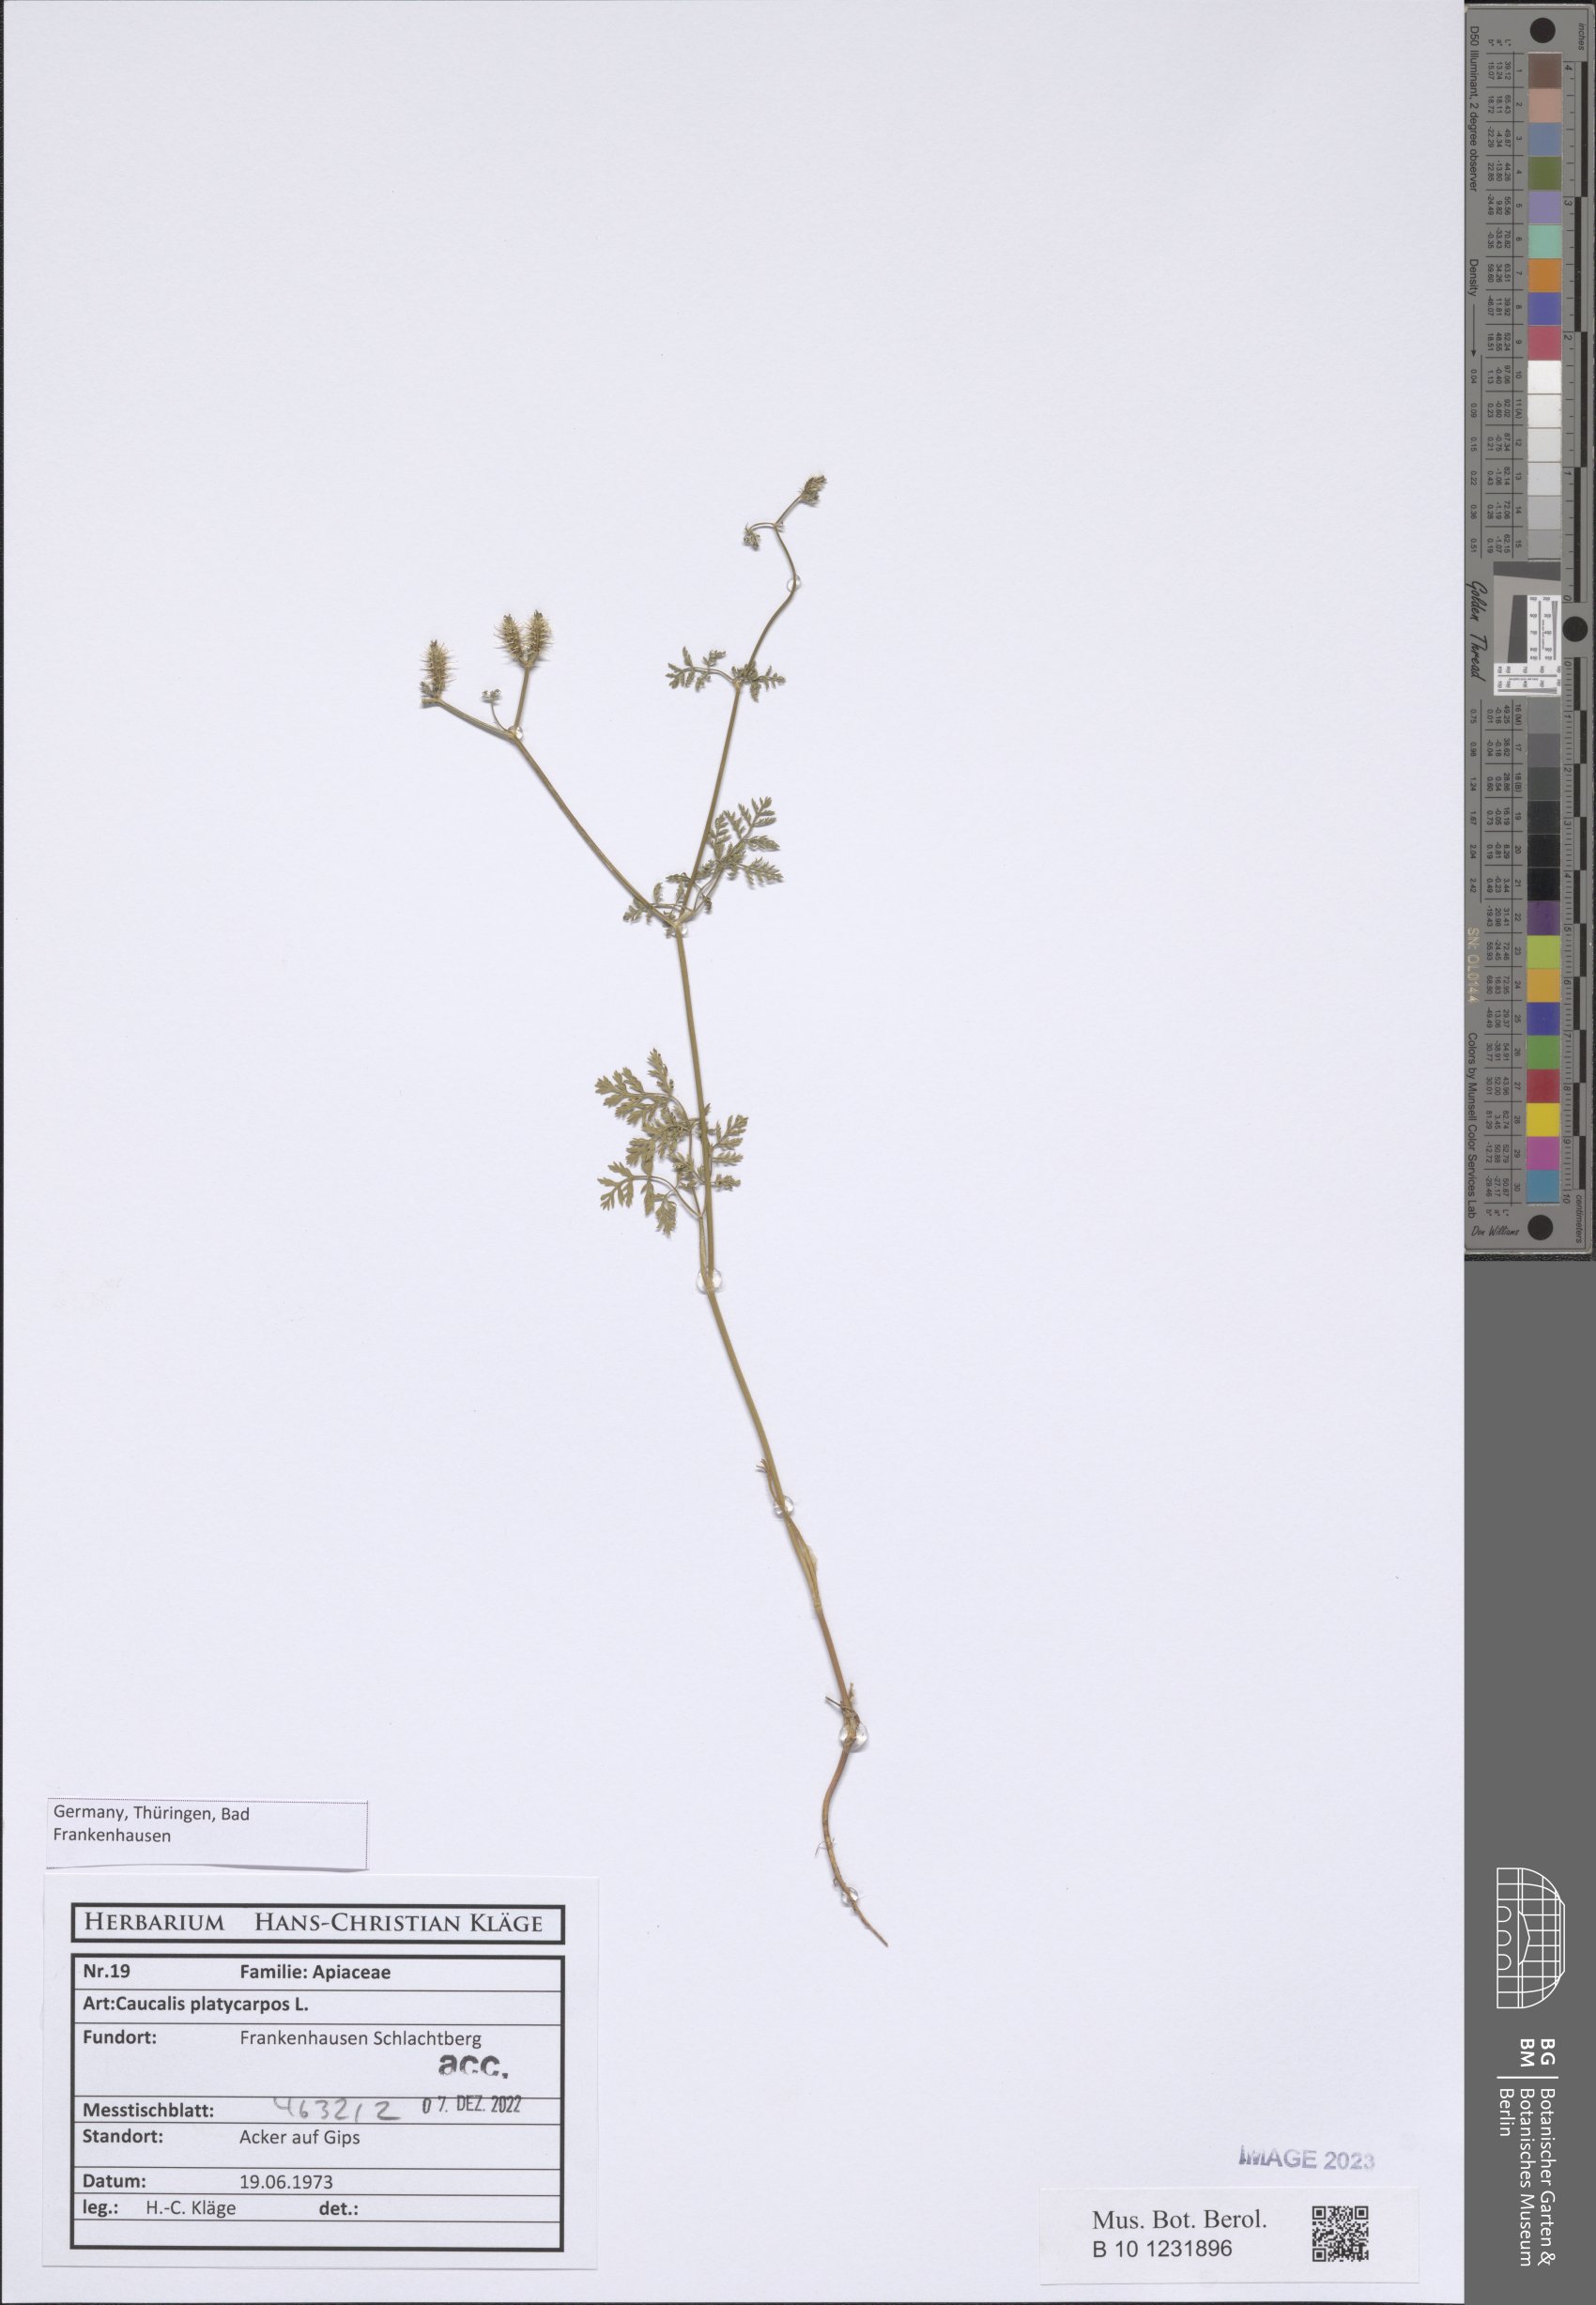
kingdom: Plantae
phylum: Tracheophyta
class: Magnoliopsida
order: Apiales
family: Apiaceae
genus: Caucalis
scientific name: Caucalis platycarpos
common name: Small bur-parsley
